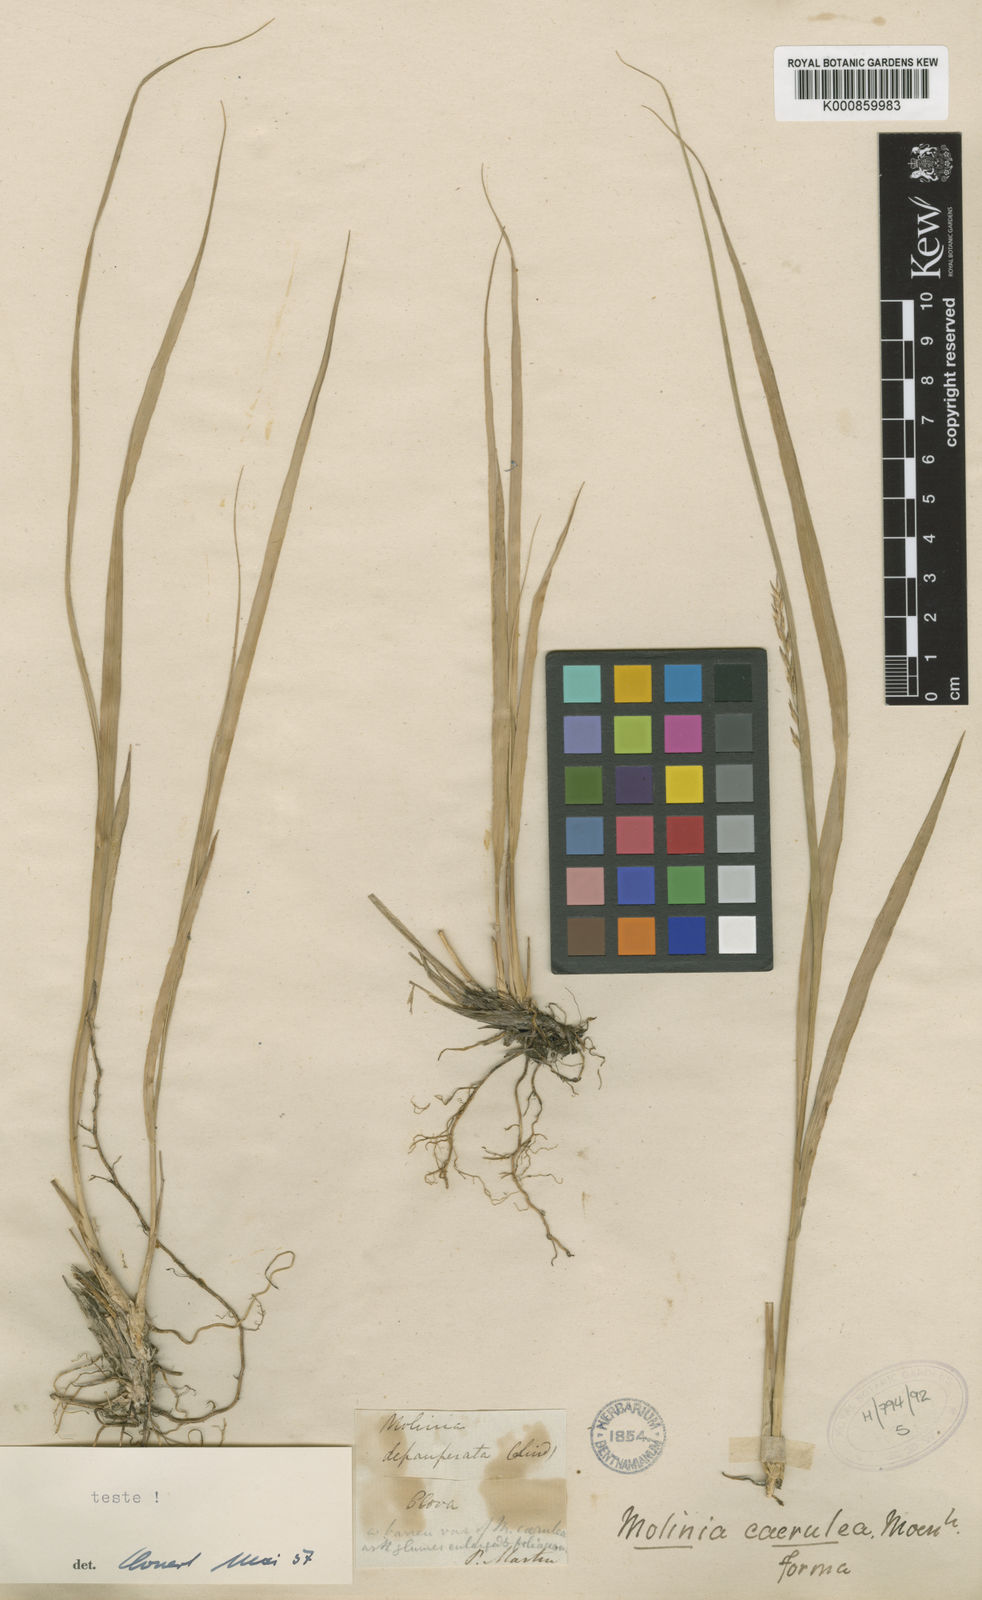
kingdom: Plantae
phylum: Tracheophyta
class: Liliopsida
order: Poales
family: Poaceae
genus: Molinia
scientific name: Molinia caerulea
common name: Purple moor-grass
